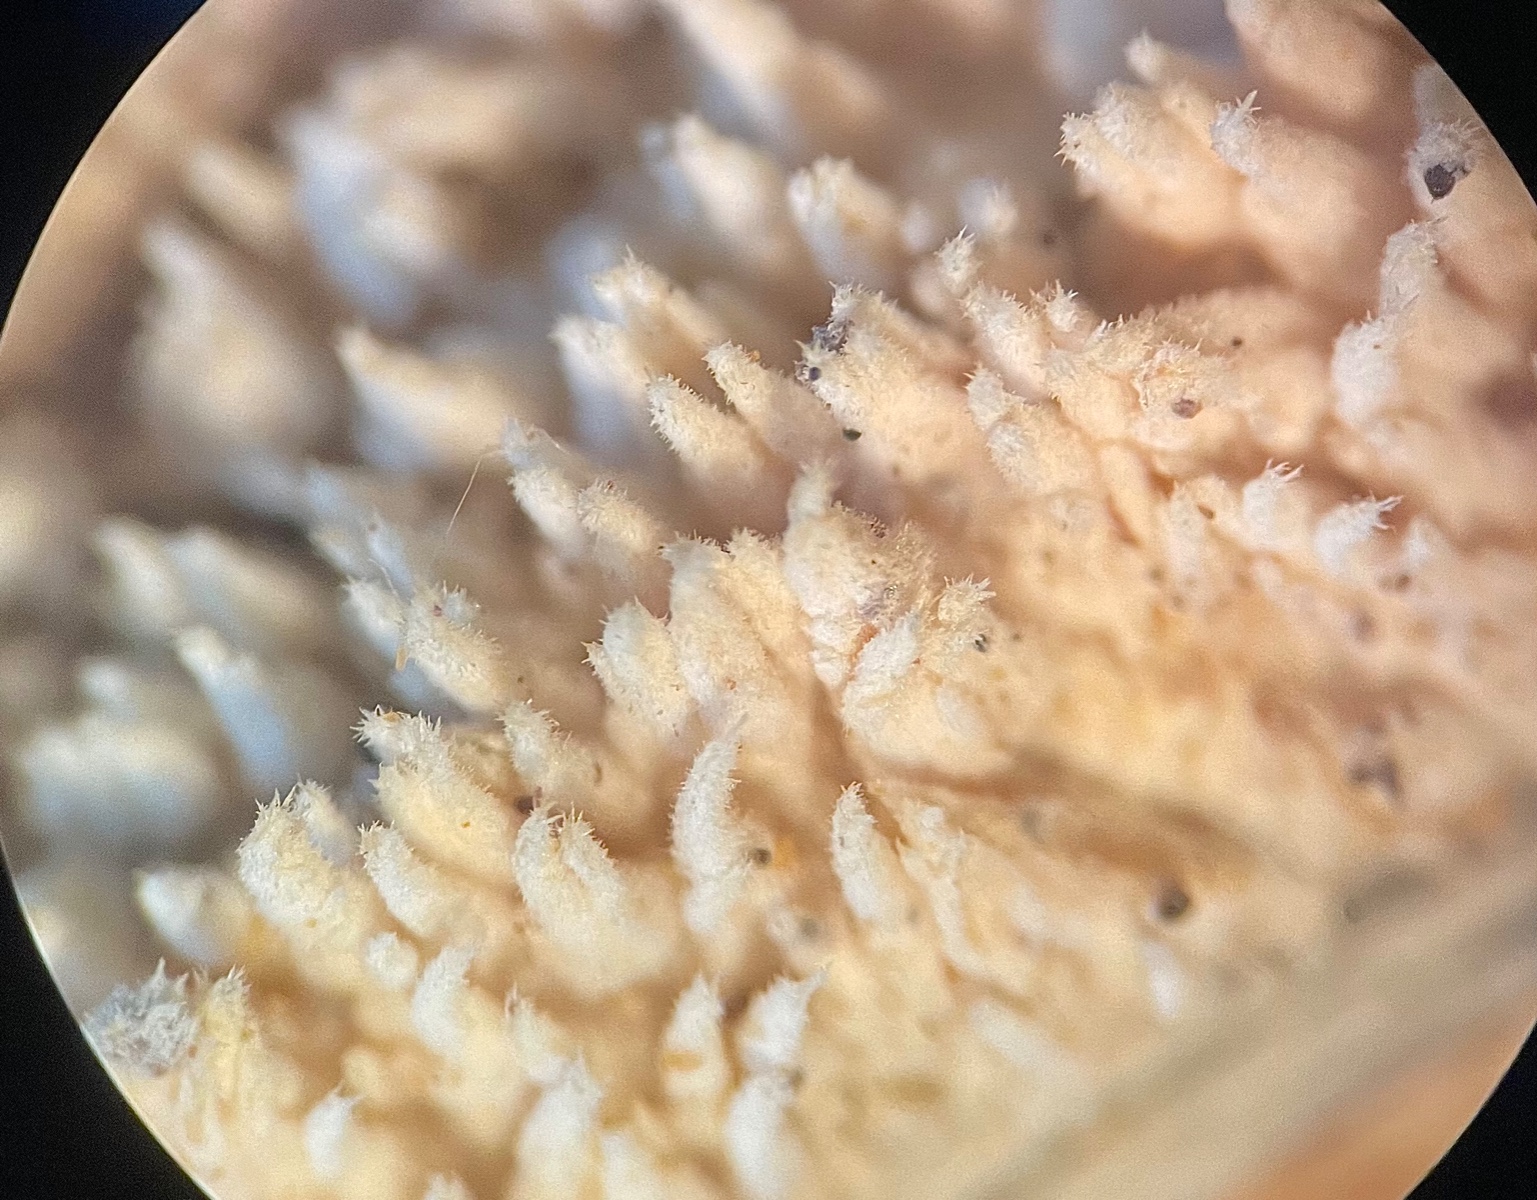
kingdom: Fungi
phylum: Basidiomycota
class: Agaricomycetes
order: Hymenochaetales
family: Hyphodontiaceae
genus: Hyphodontia
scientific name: Hyphodontia barba-jovis
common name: skægget tandsvamp
